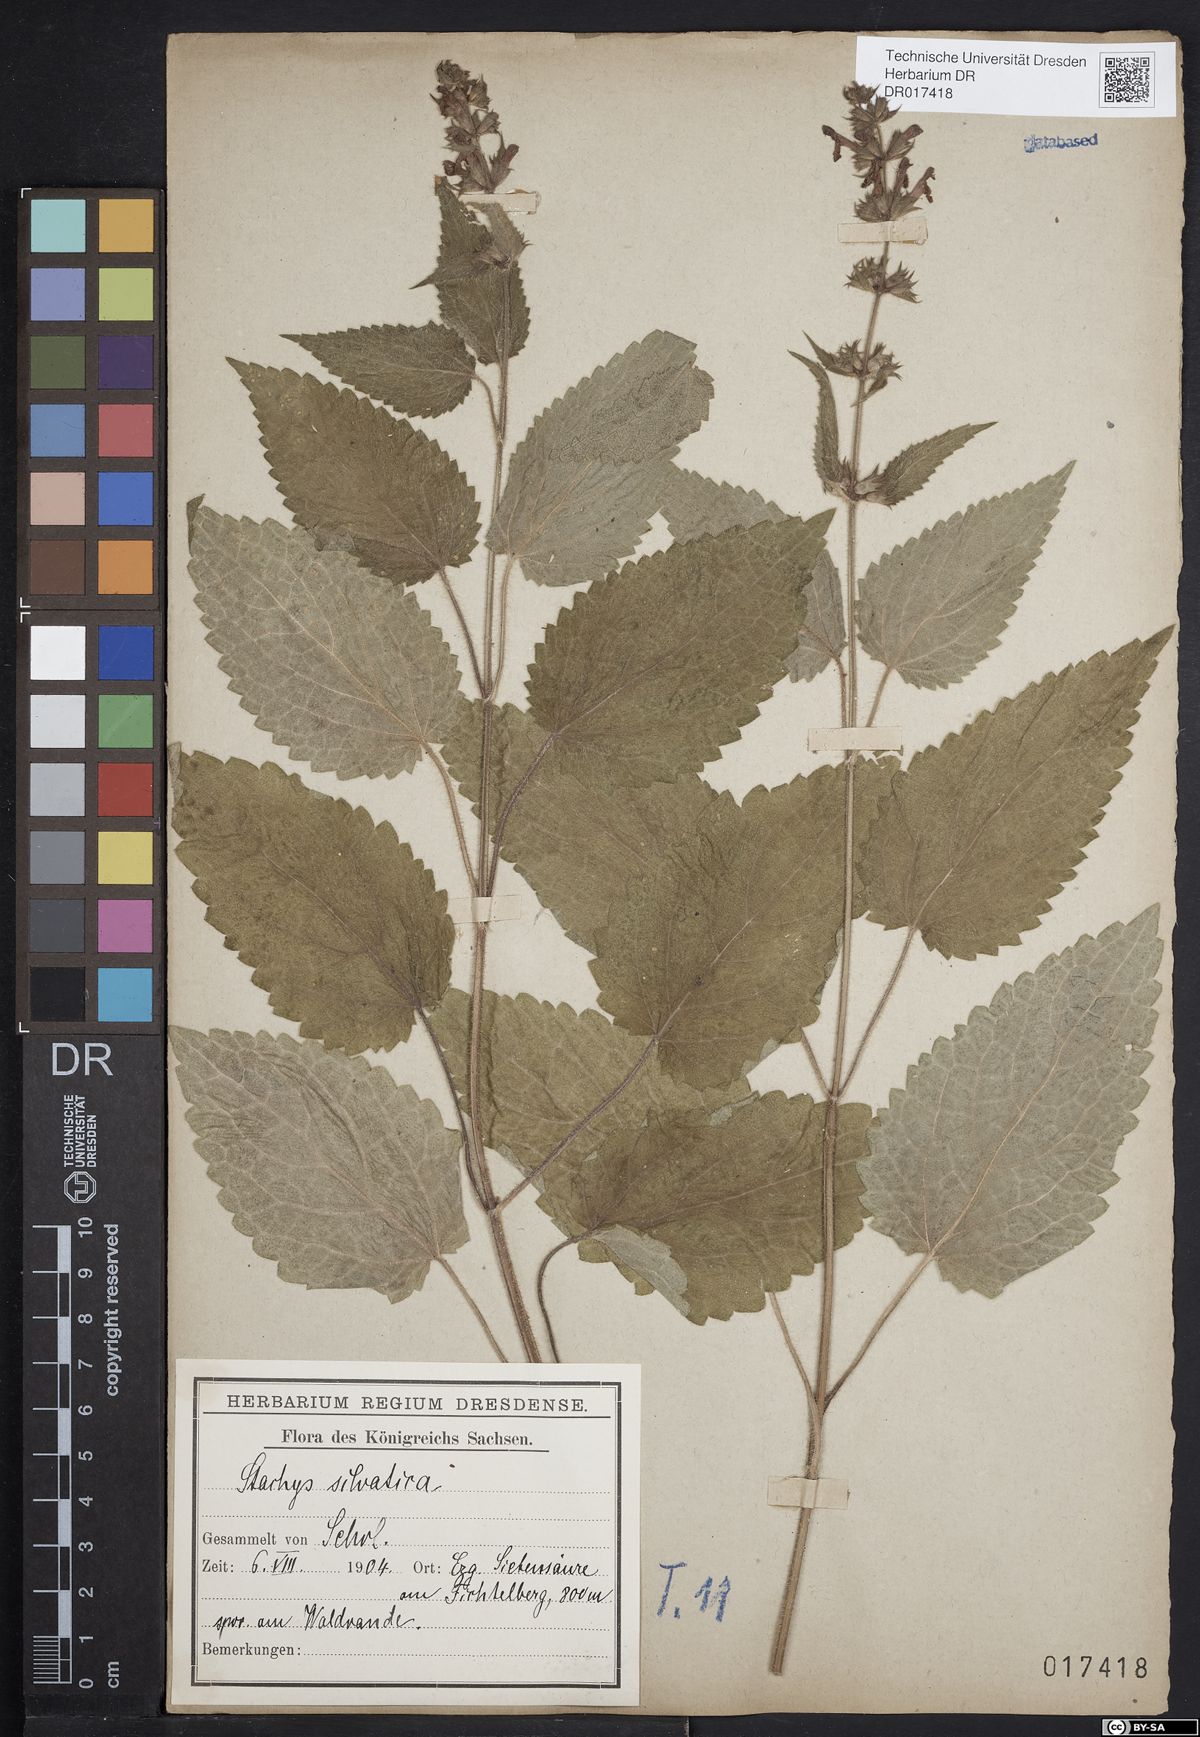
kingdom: Plantae
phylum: Tracheophyta
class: Magnoliopsida
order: Lamiales
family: Lamiaceae
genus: Stachys
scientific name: Stachys sylvatica
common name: Hedge woundwort
